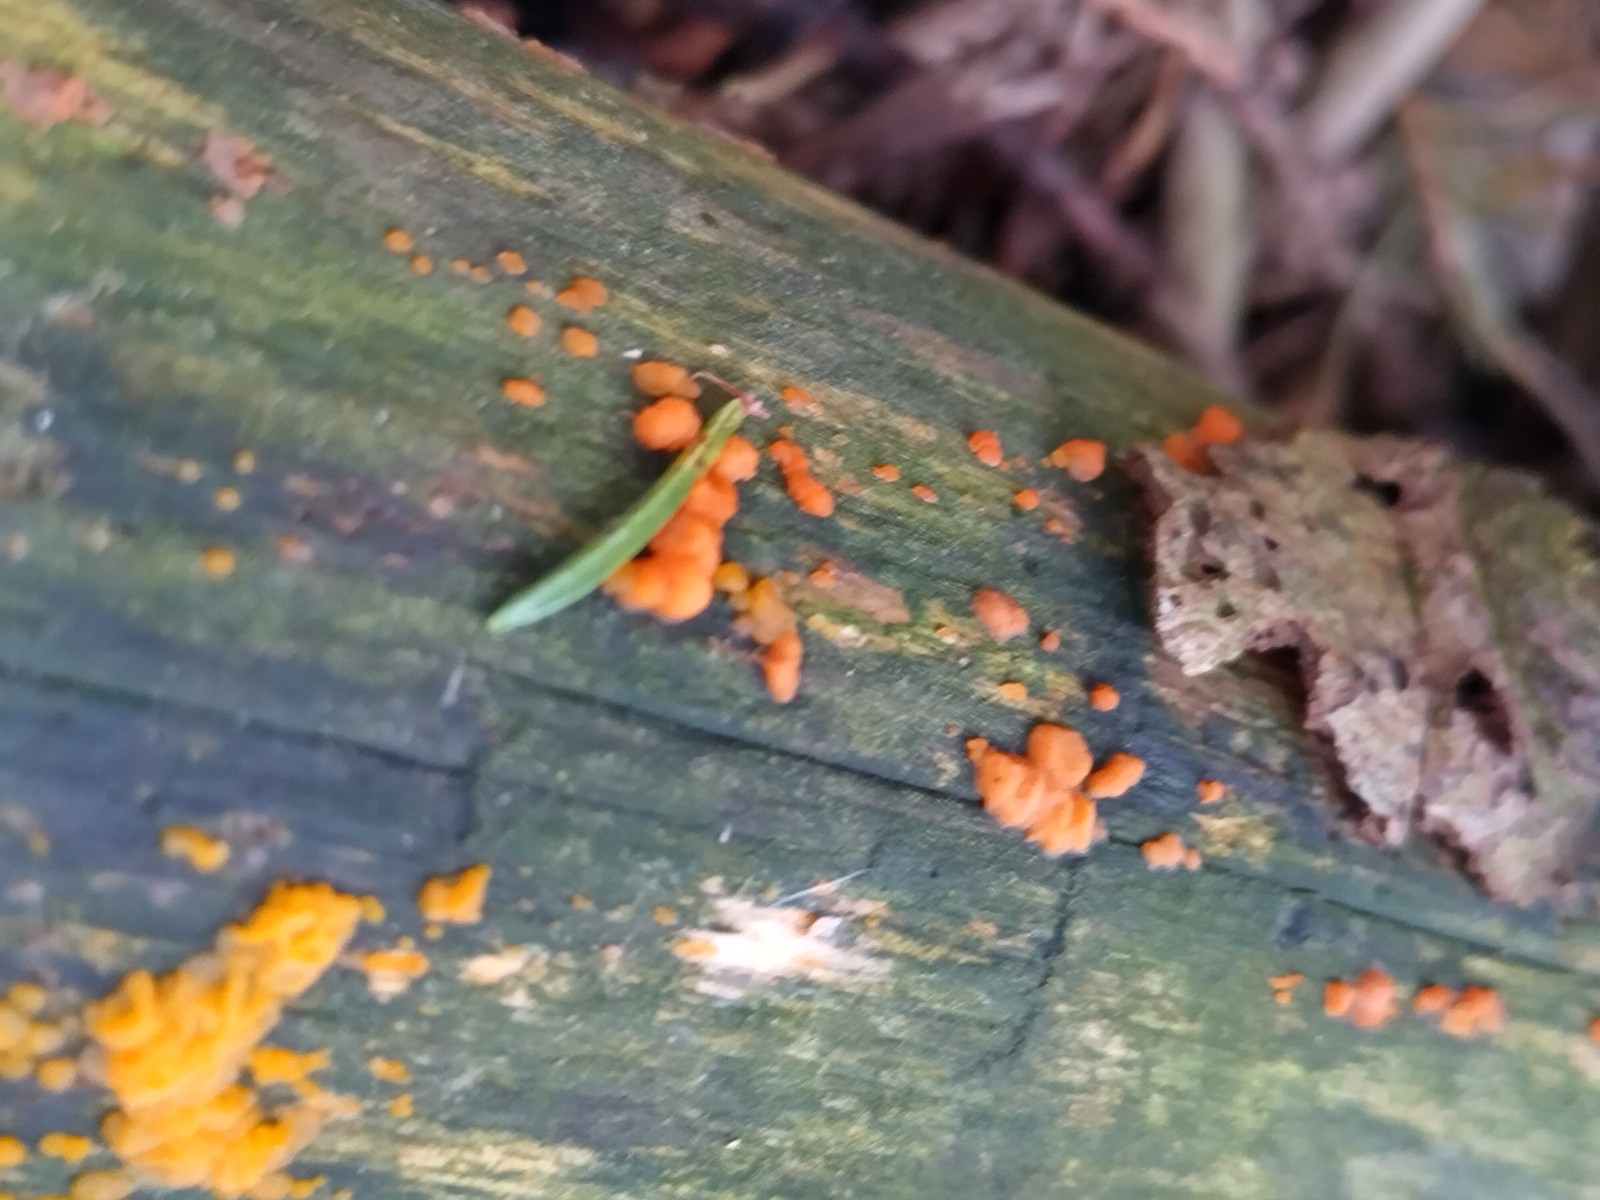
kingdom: Fungi
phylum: Basidiomycota
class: Dacrymycetes
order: Dacrymycetales
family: Dacrymycetaceae
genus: Dacrymyces
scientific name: Dacrymyces stillatus
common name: almindelig tåresvamp
